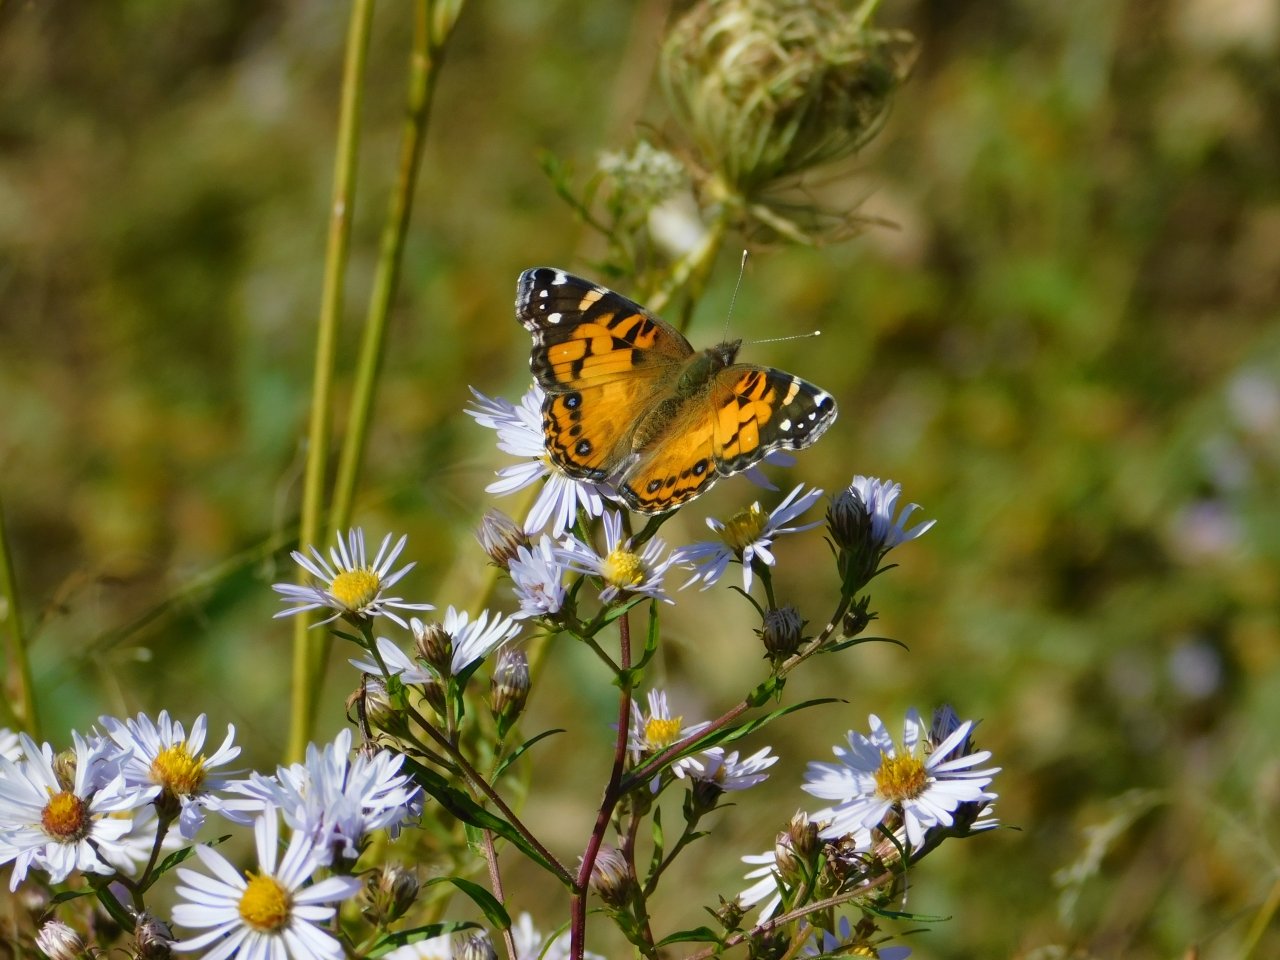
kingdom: Animalia
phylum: Arthropoda
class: Insecta
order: Lepidoptera
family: Nymphalidae
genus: Vanessa
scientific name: Vanessa virginiensis
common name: American Lady
